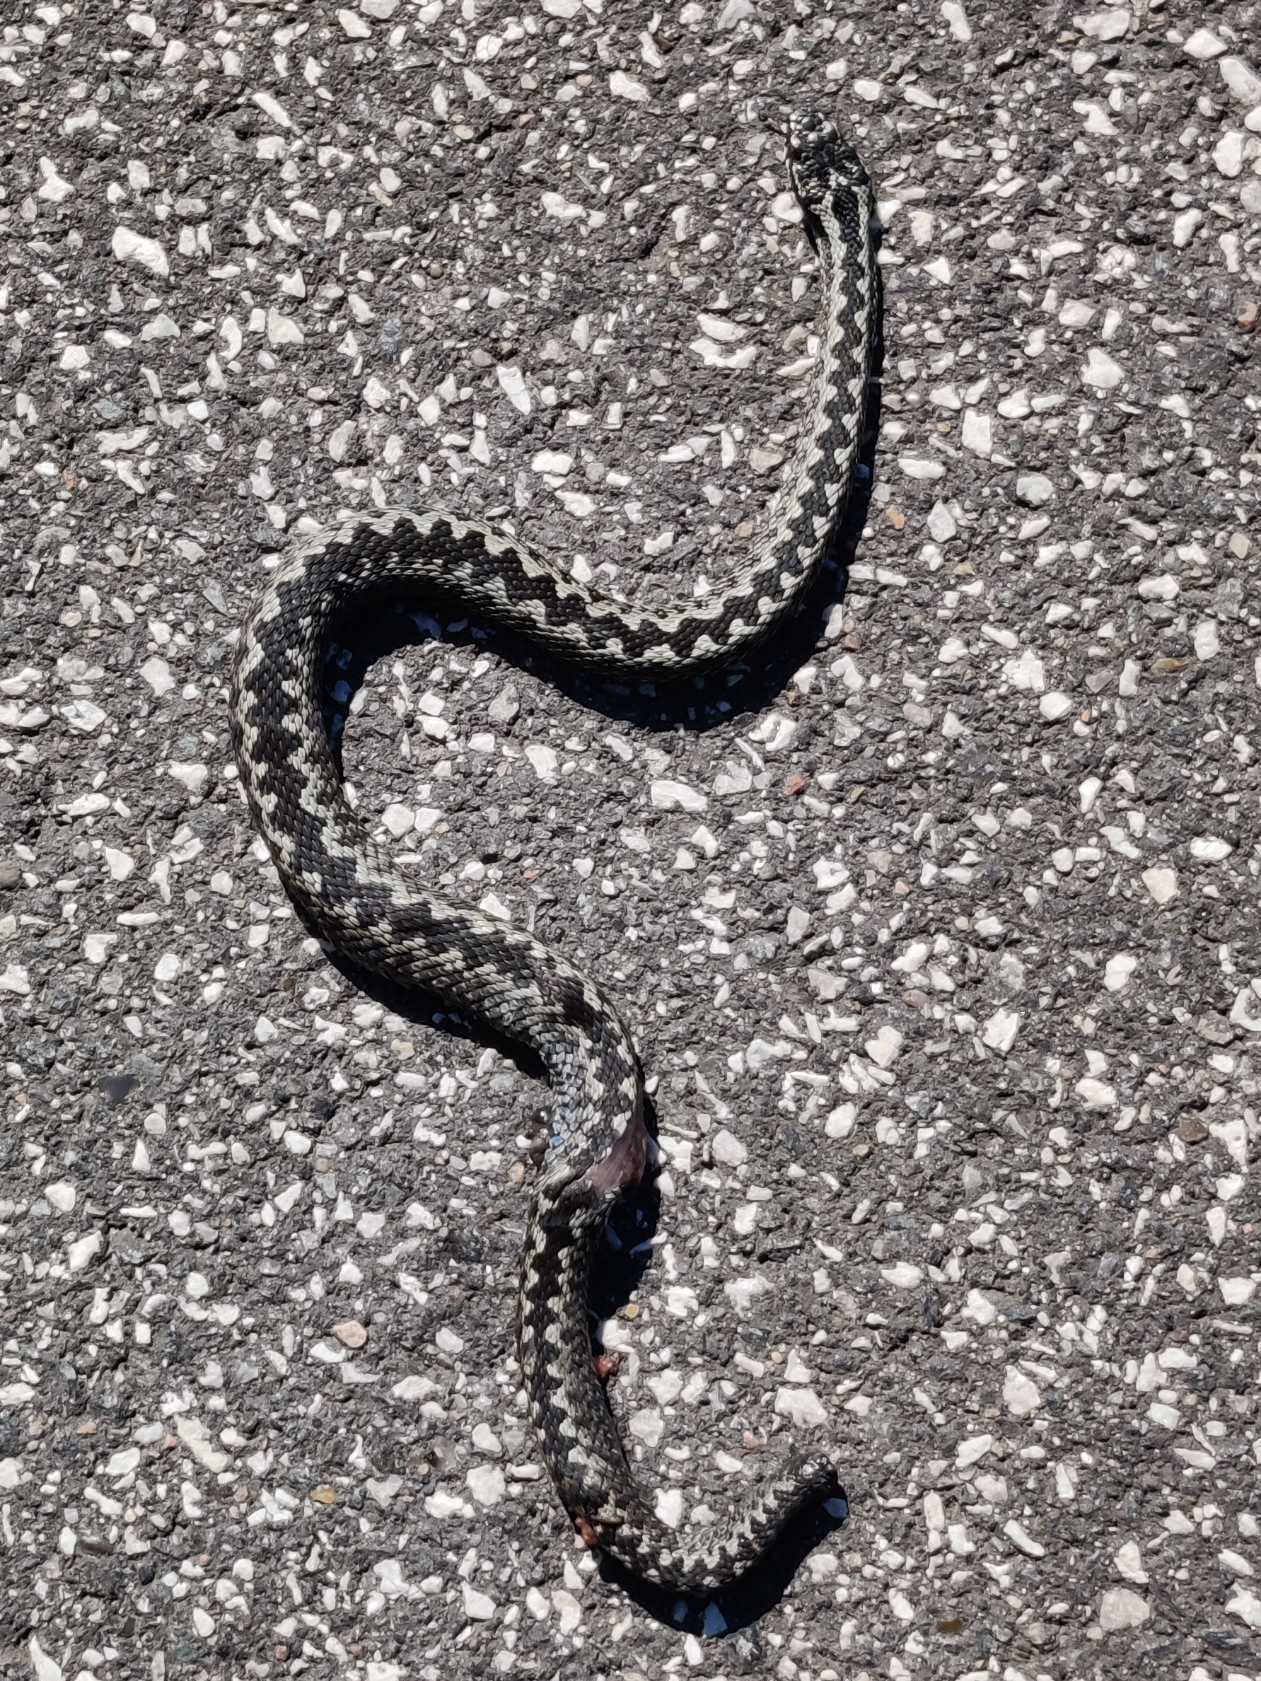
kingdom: Animalia
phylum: Chordata
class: Squamata
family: Viperidae
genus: Vipera
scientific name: Vipera berus
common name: Hugorm
